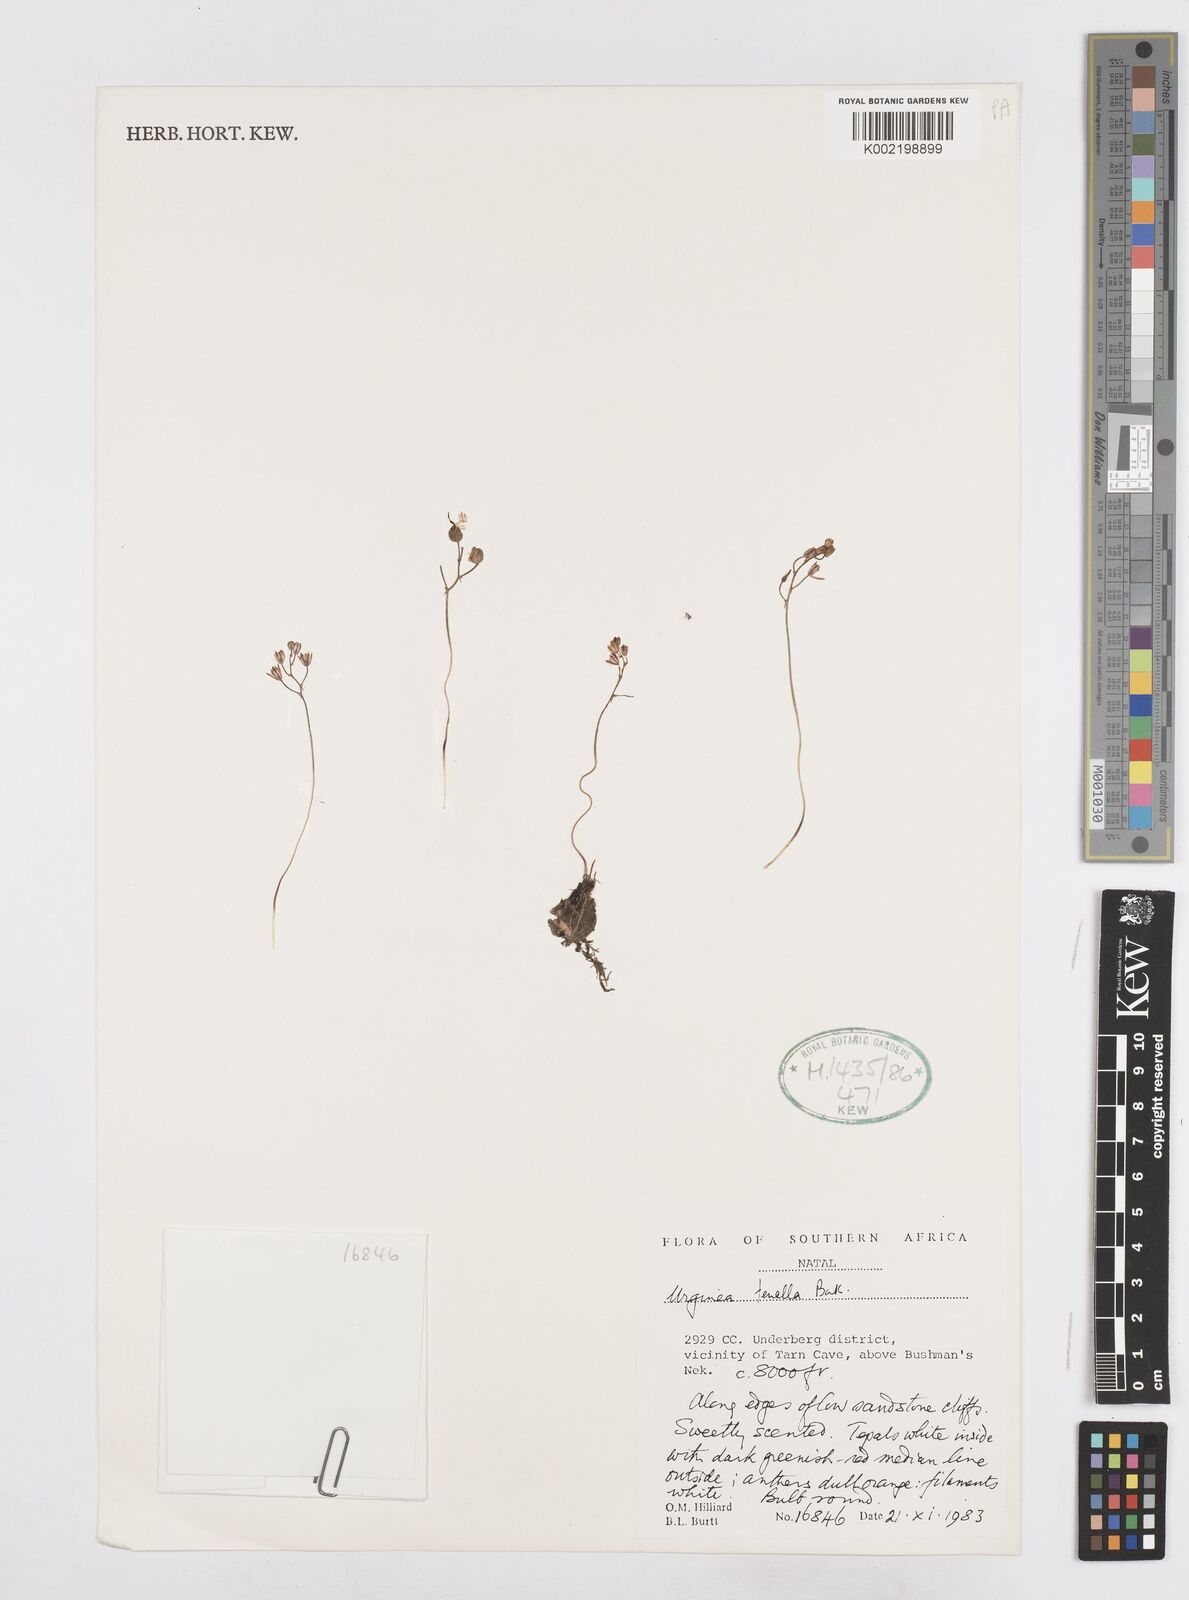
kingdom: Plantae
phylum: Tracheophyta
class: Liliopsida
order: Asparagales
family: Asparagaceae
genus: Drimia
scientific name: Drimia
